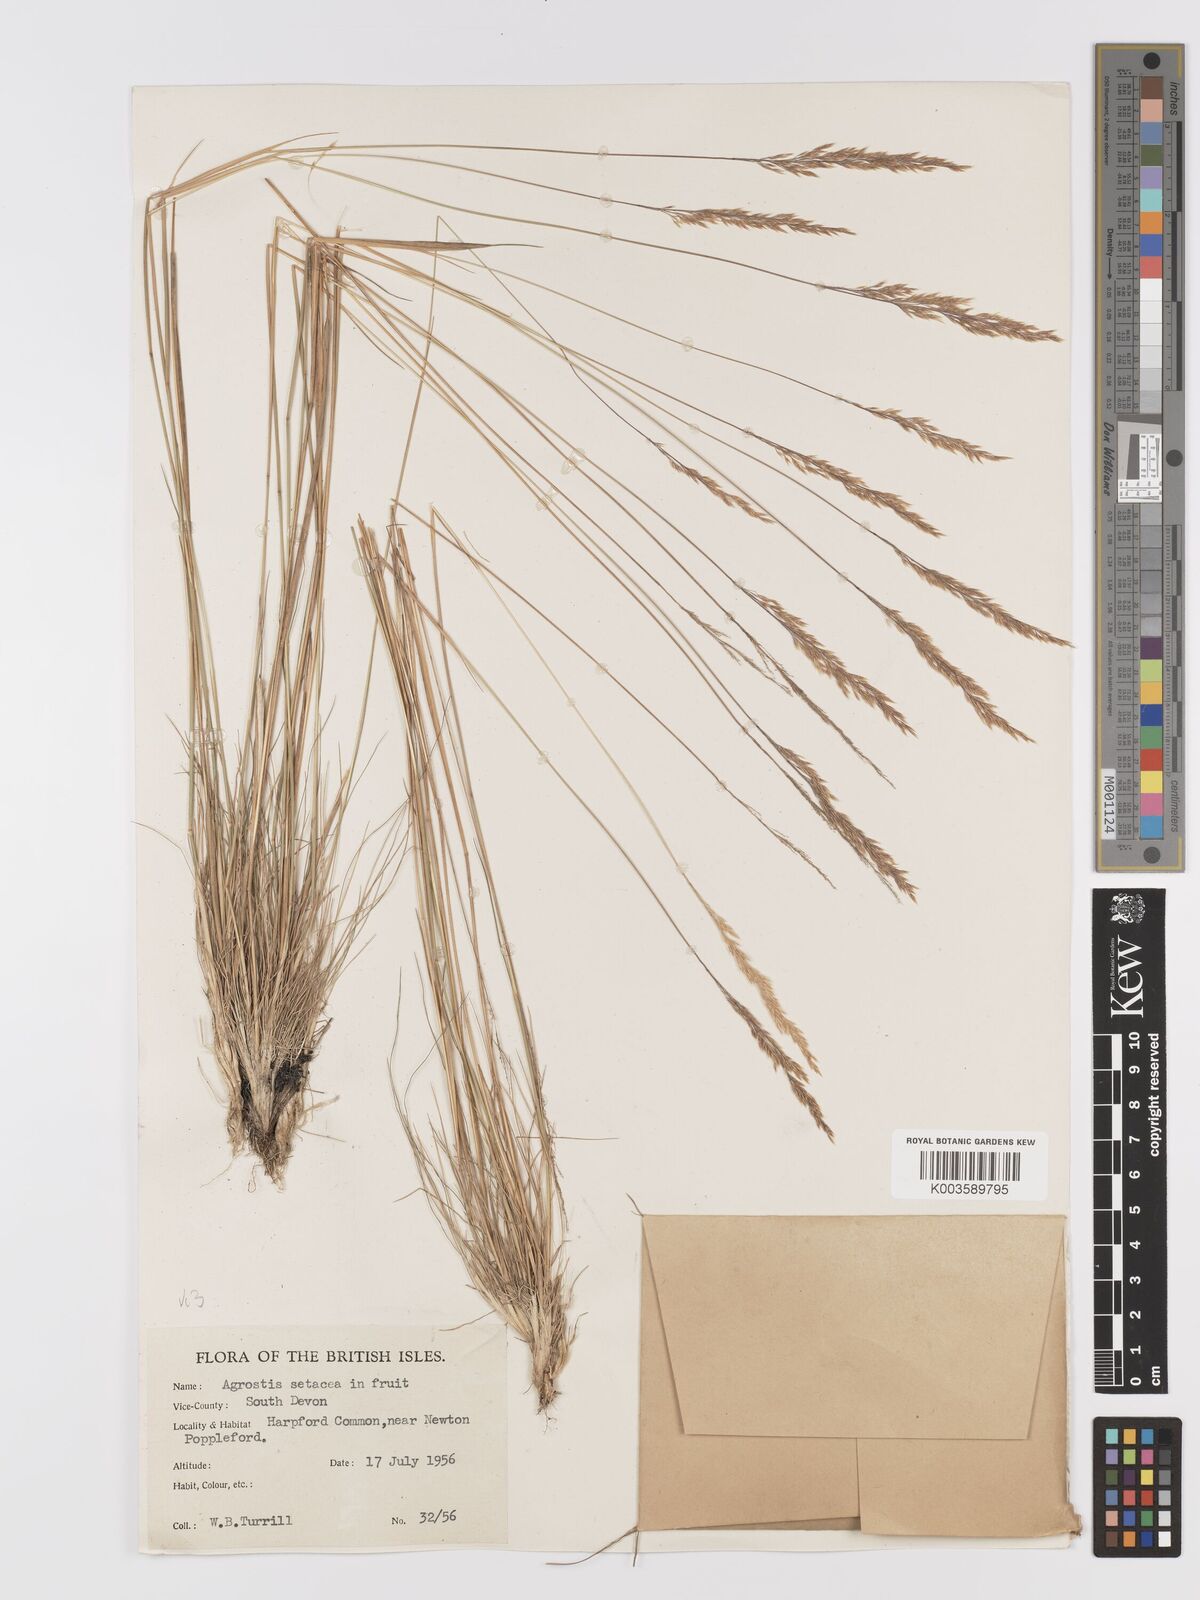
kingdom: Plantae
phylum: Tracheophyta
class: Liliopsida
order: Poales
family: Poaceae
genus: Alpagrostis
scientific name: Alpagrostis setacea
